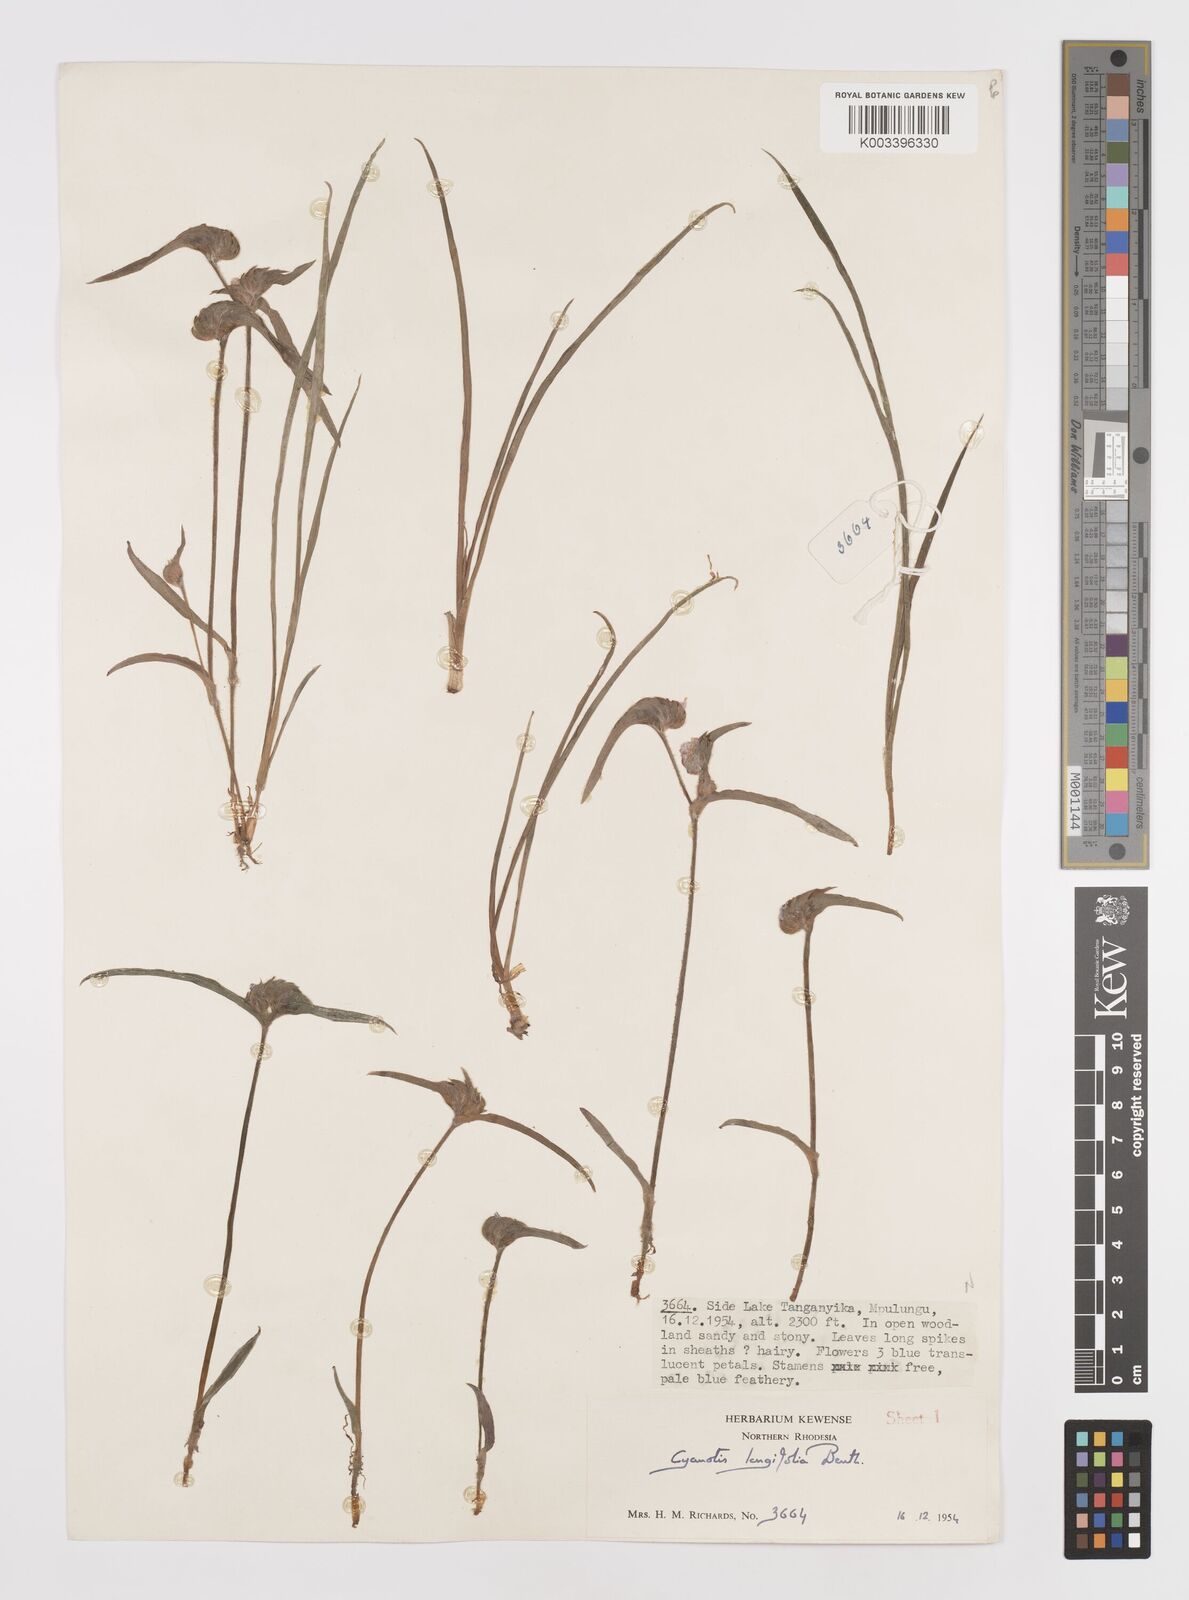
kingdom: Plantae
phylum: Tracheophyta
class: Liliopsida
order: Commelinales
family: Commelinaceae
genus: Cyanotis
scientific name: Cyanotis longifolia
